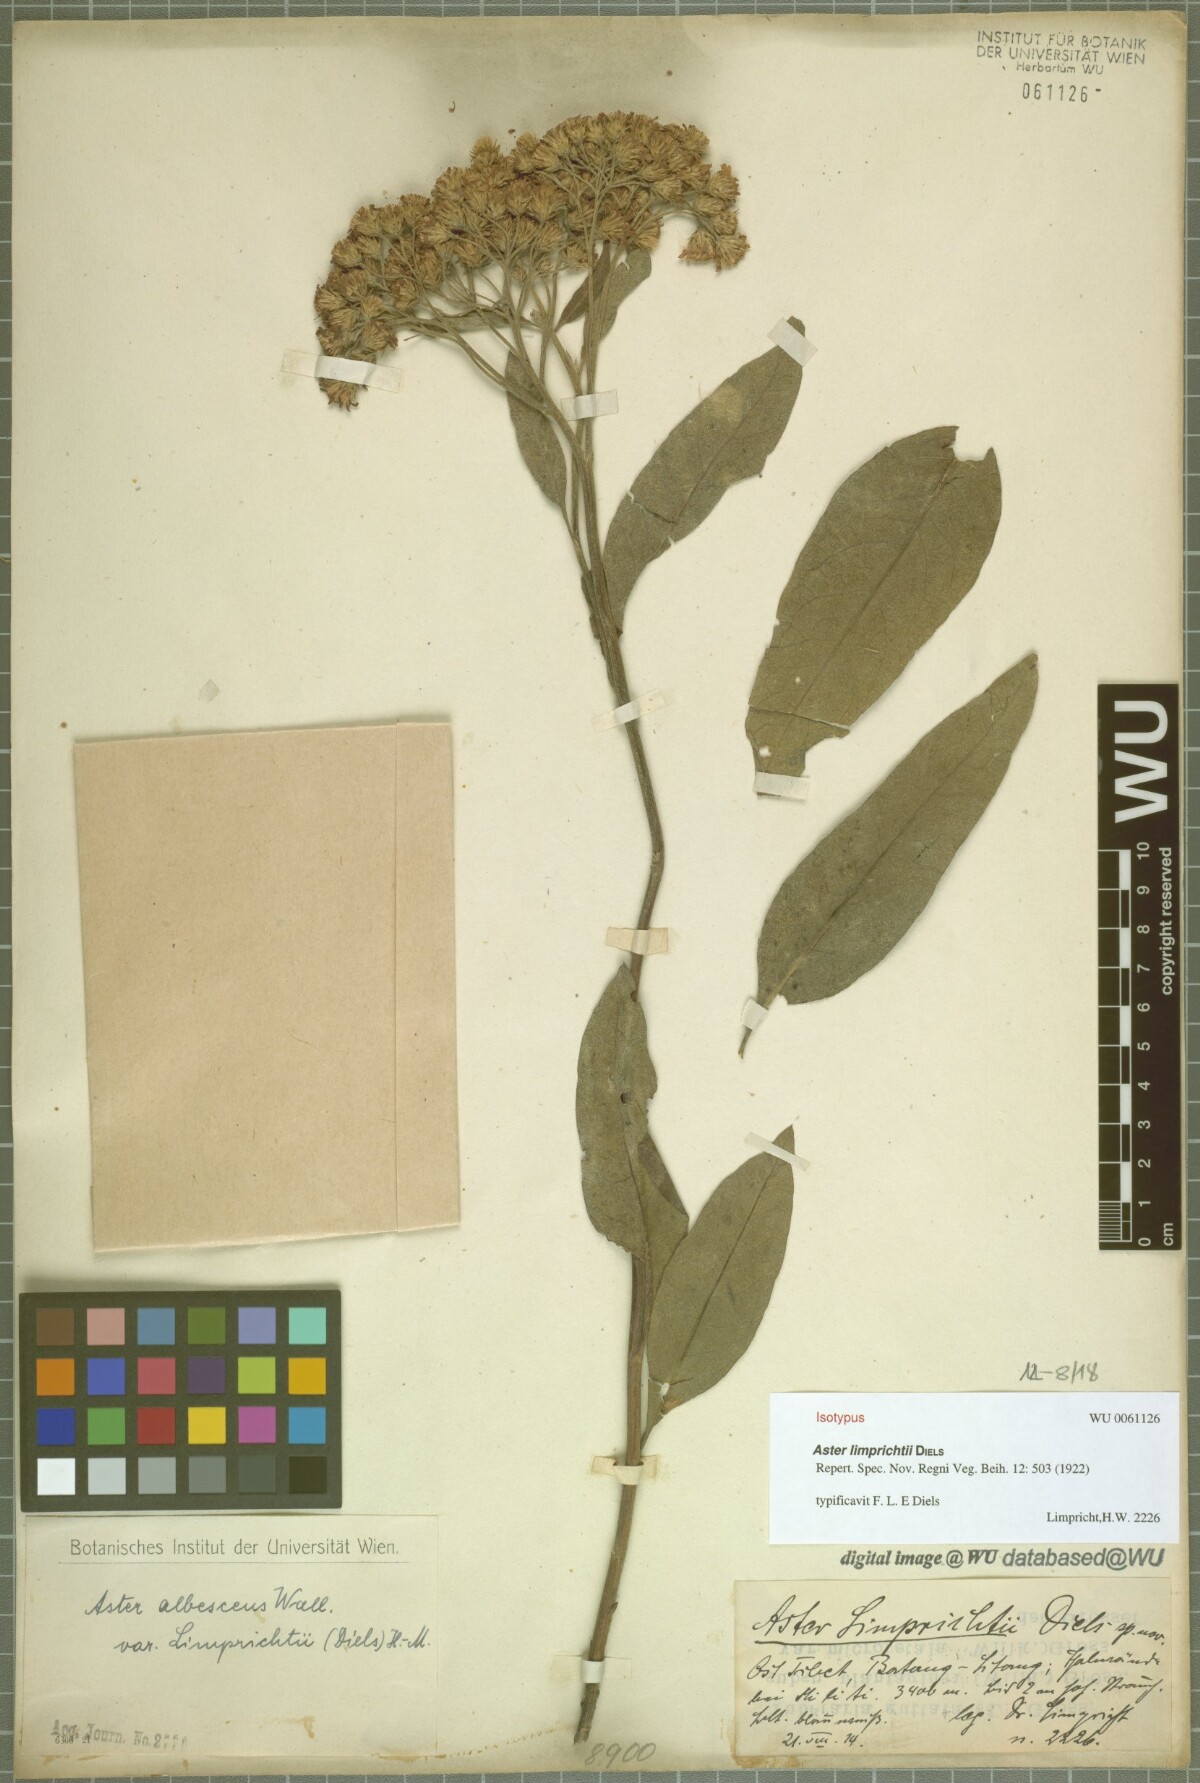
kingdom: Plantae
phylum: Tracheophyta
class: Magnoliopsida
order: Asterales
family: Asteraceae
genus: Sinosidus
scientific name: Sinosidus albescens
